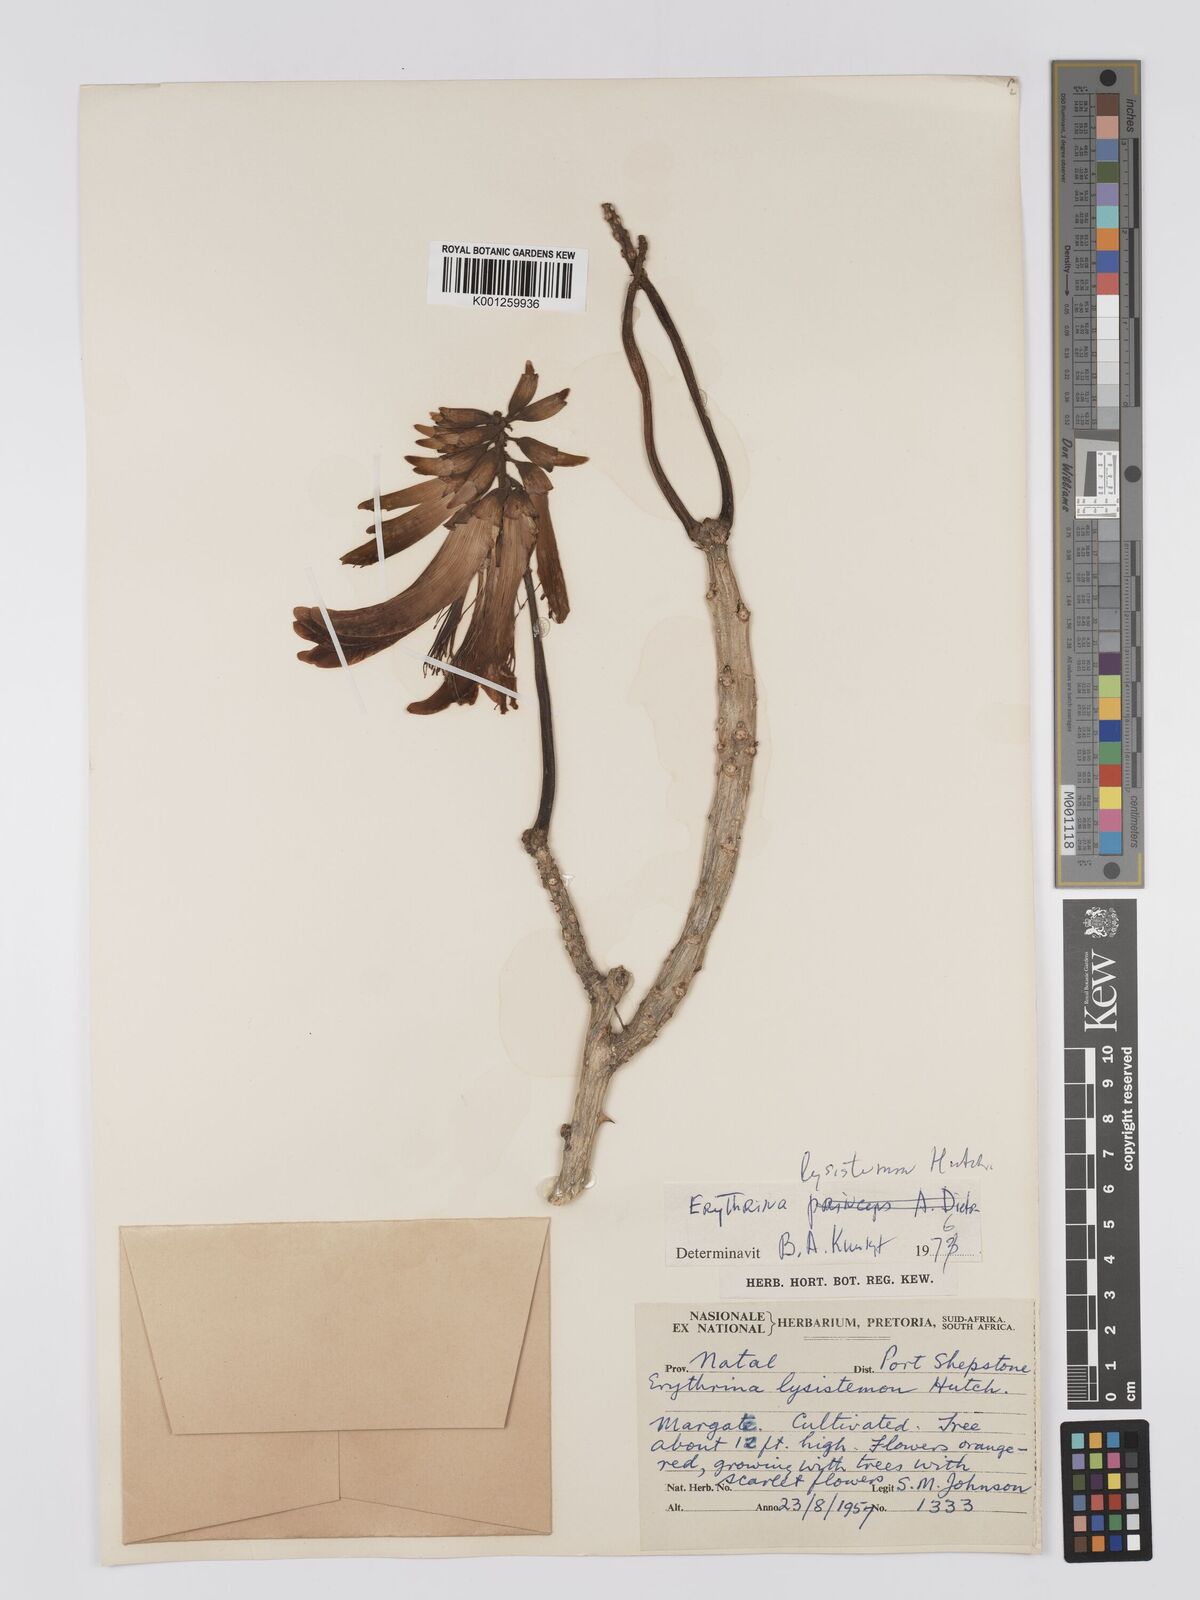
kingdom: Plantae
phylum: Tracheophyta
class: Magnoliopsida
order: Fabales
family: Fabaceae
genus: Erythrina
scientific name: Erythrina lysistemon
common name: Common coral tree
